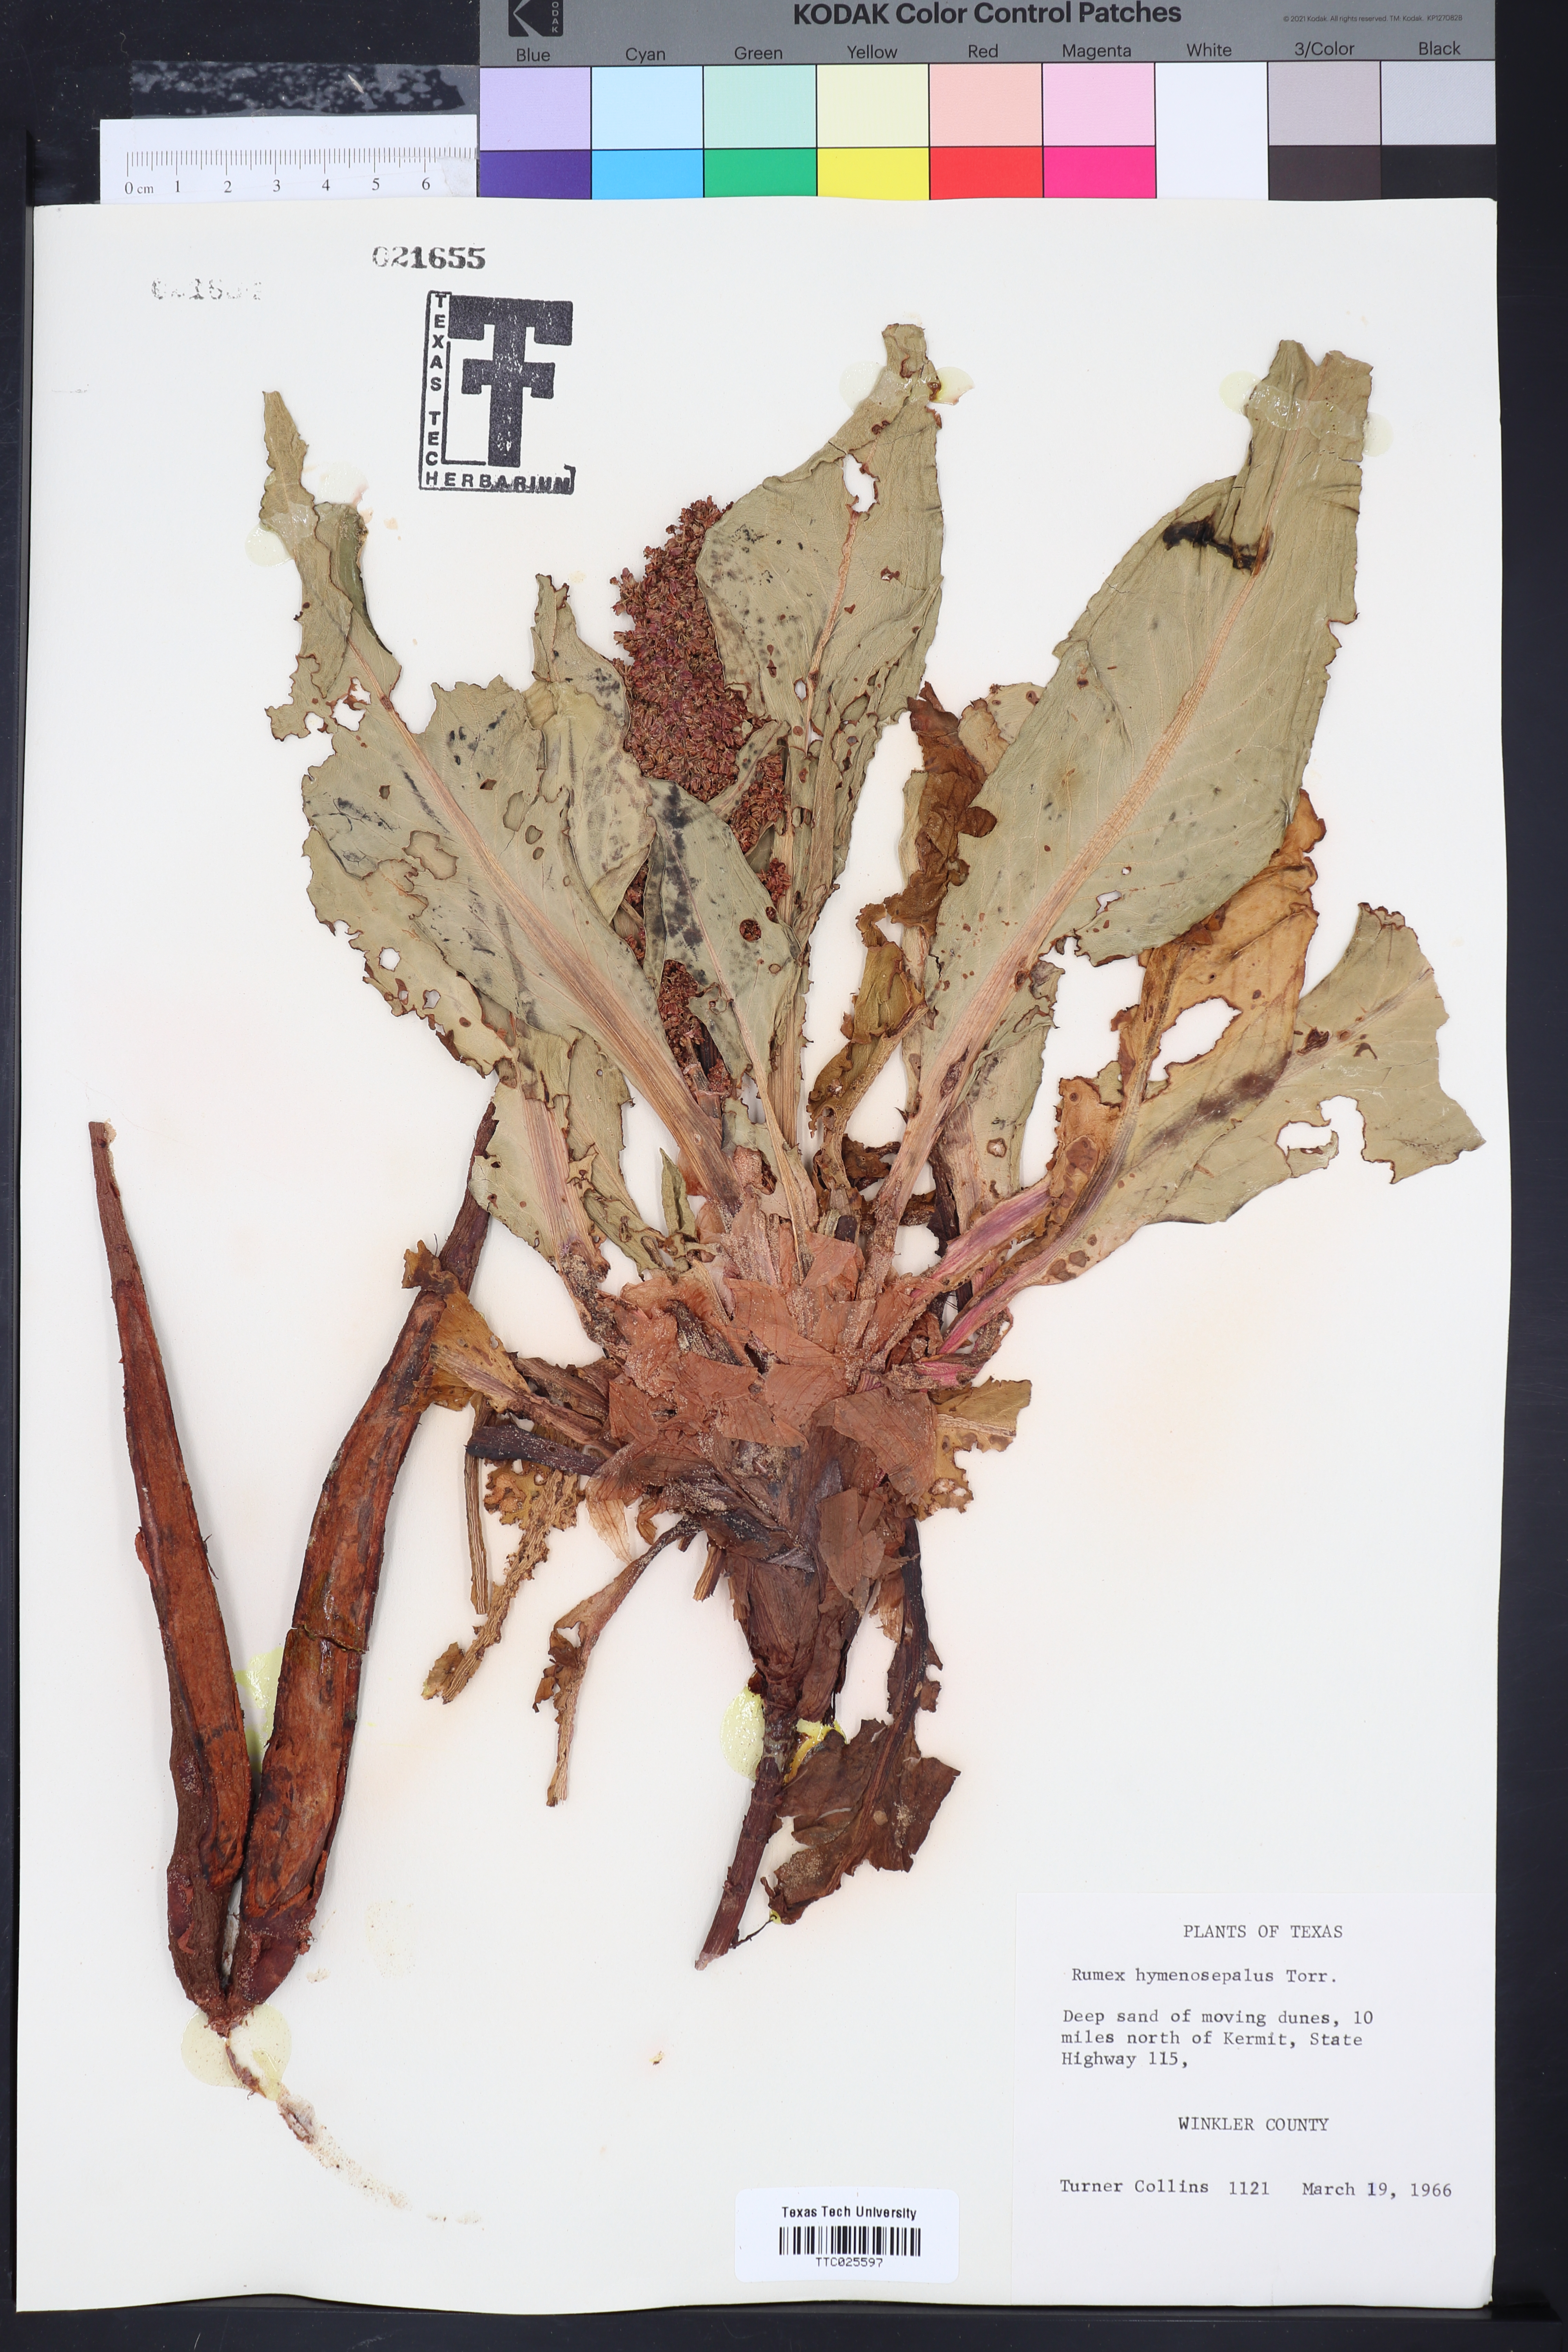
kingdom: Plantae
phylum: Tracheophyta
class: Magnoliopsida
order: Caryophyllales
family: Polygonaceae
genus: Rumex
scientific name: Rumex hymenosepalus
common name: Ganagra
